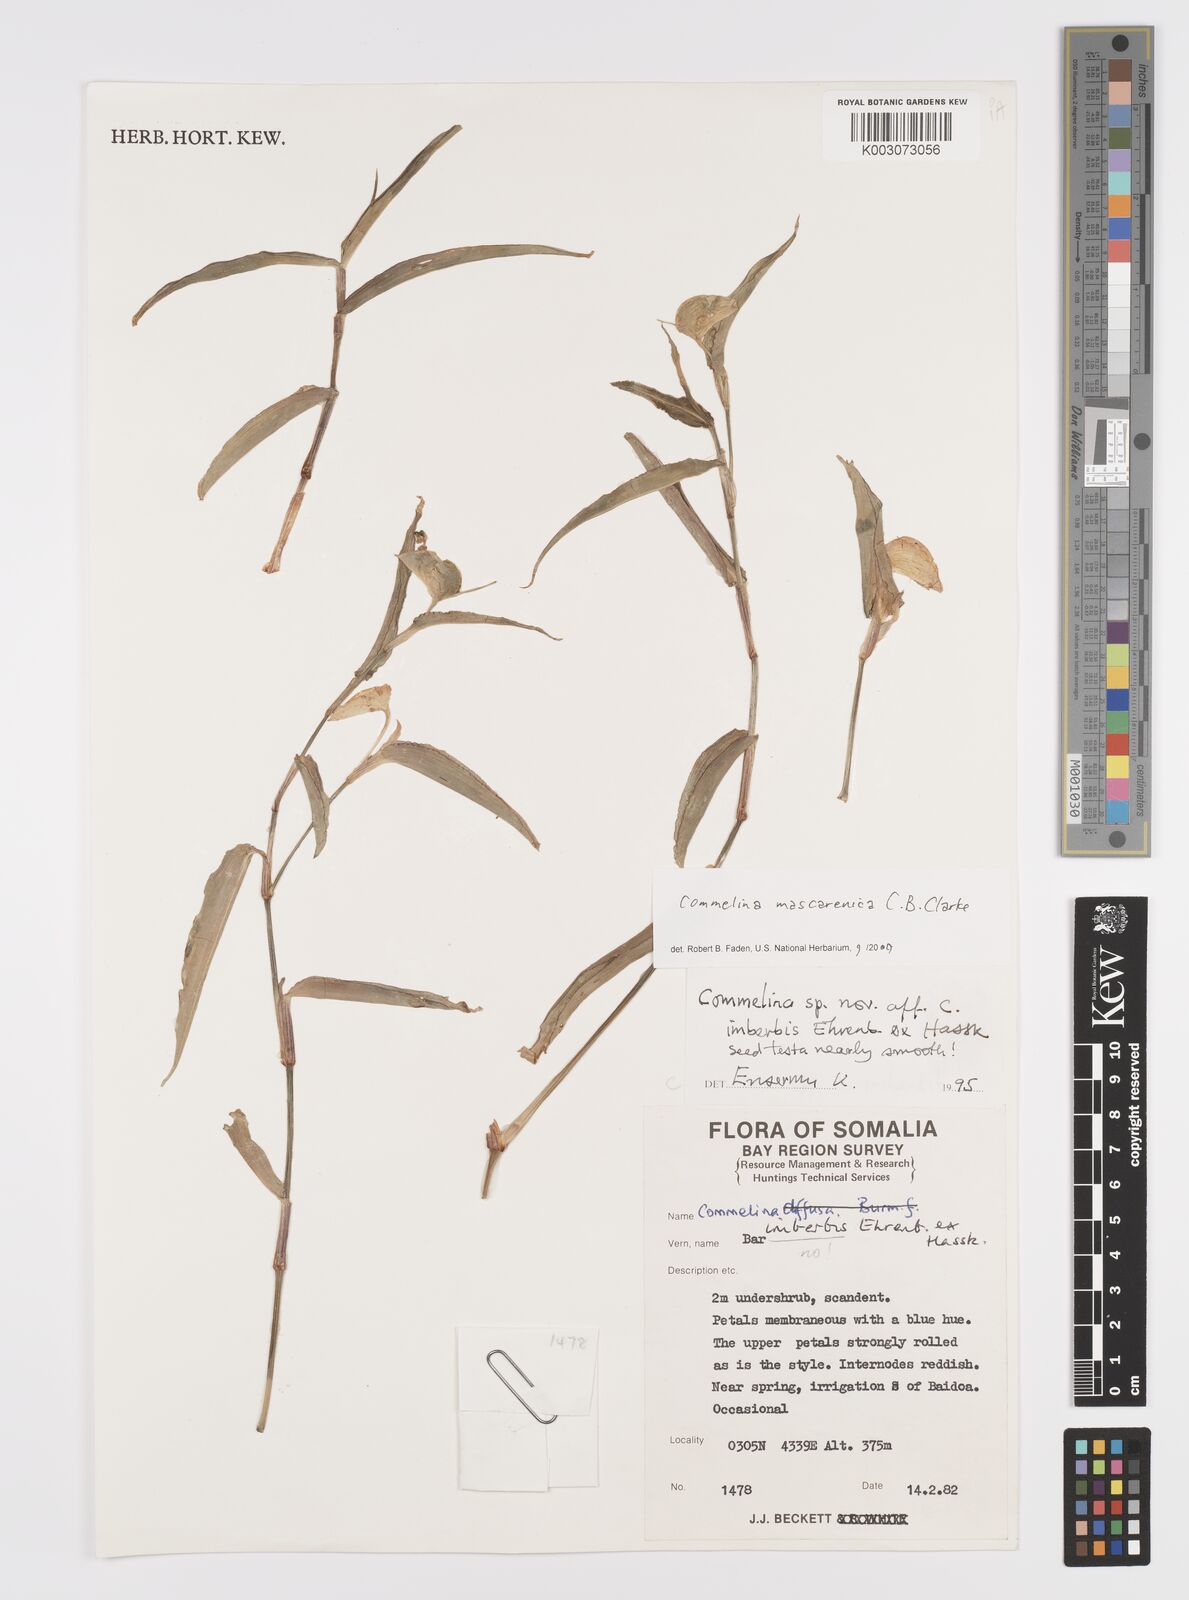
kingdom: Plantae
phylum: Tracheophyta
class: Liliopsida
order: Commelinales
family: Commelinaceae
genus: Commelina
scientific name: Commelina mascarenica
